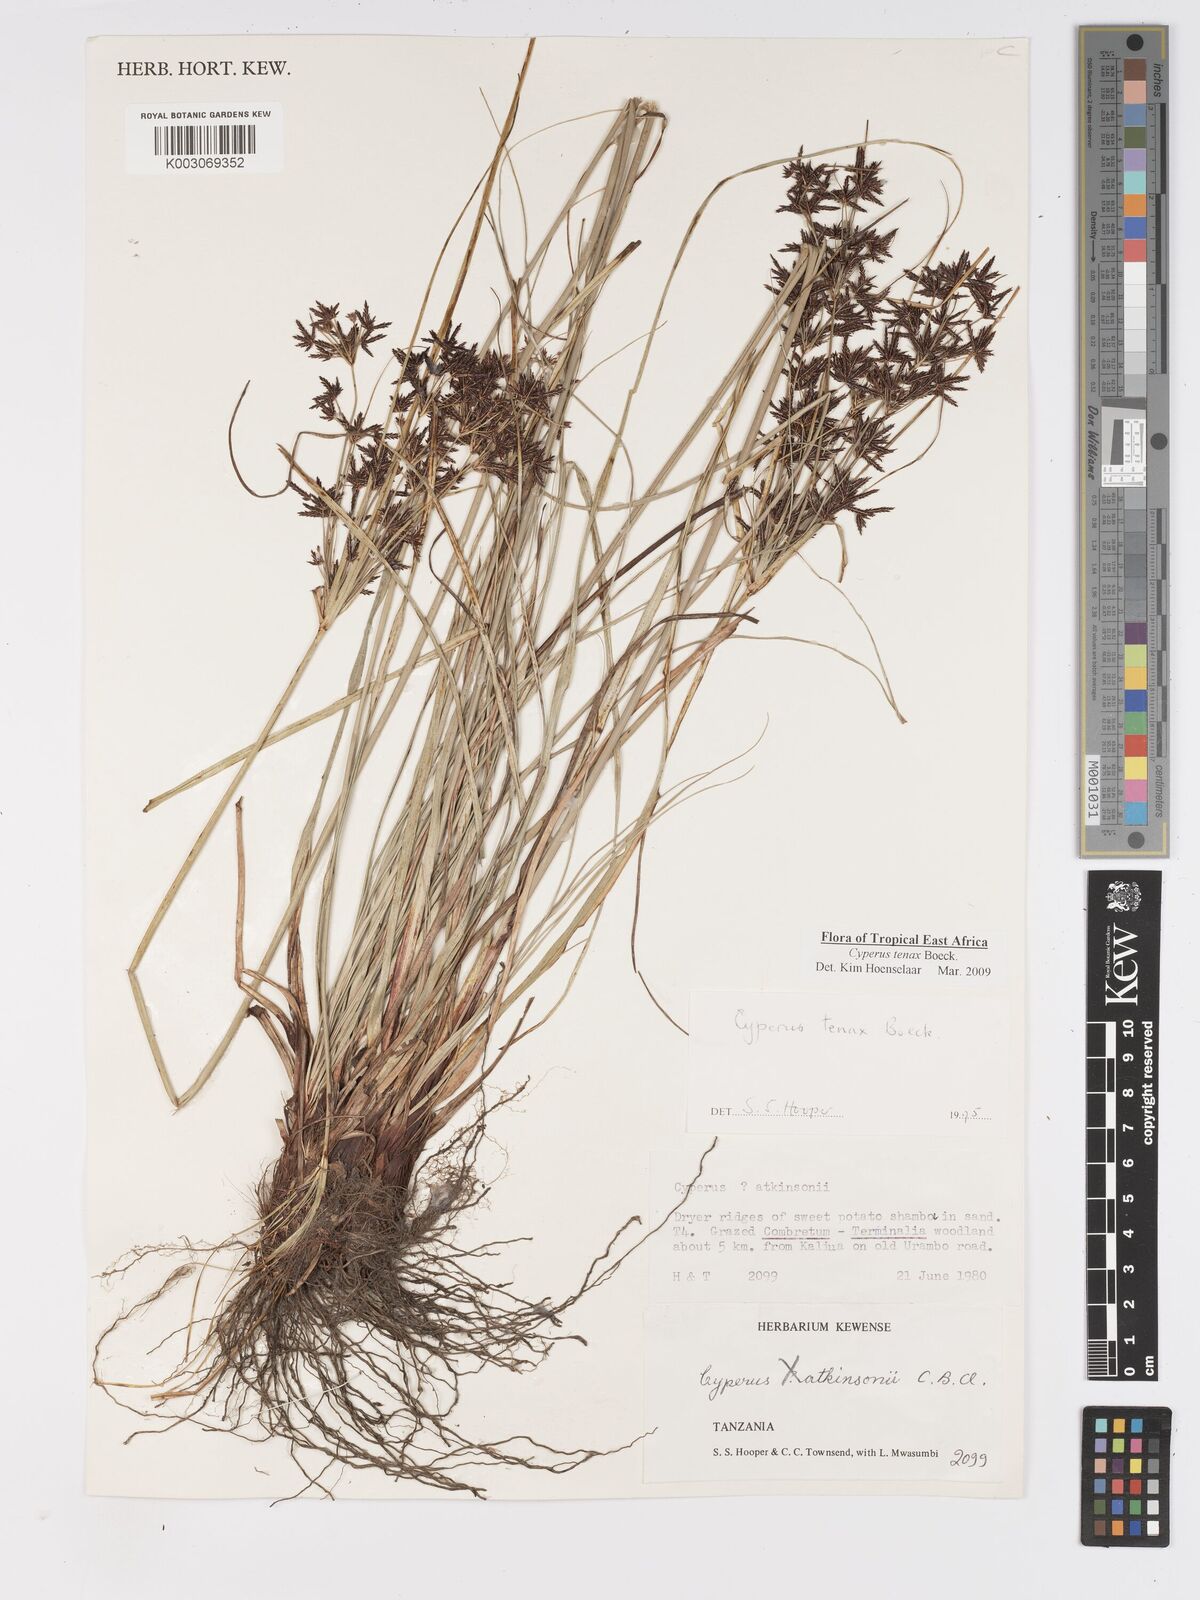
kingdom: Plantae
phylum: Tracheophyta
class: Liliopsida
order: Poales
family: Cyperaceae
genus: Cyperus
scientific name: Cyperus tenax
